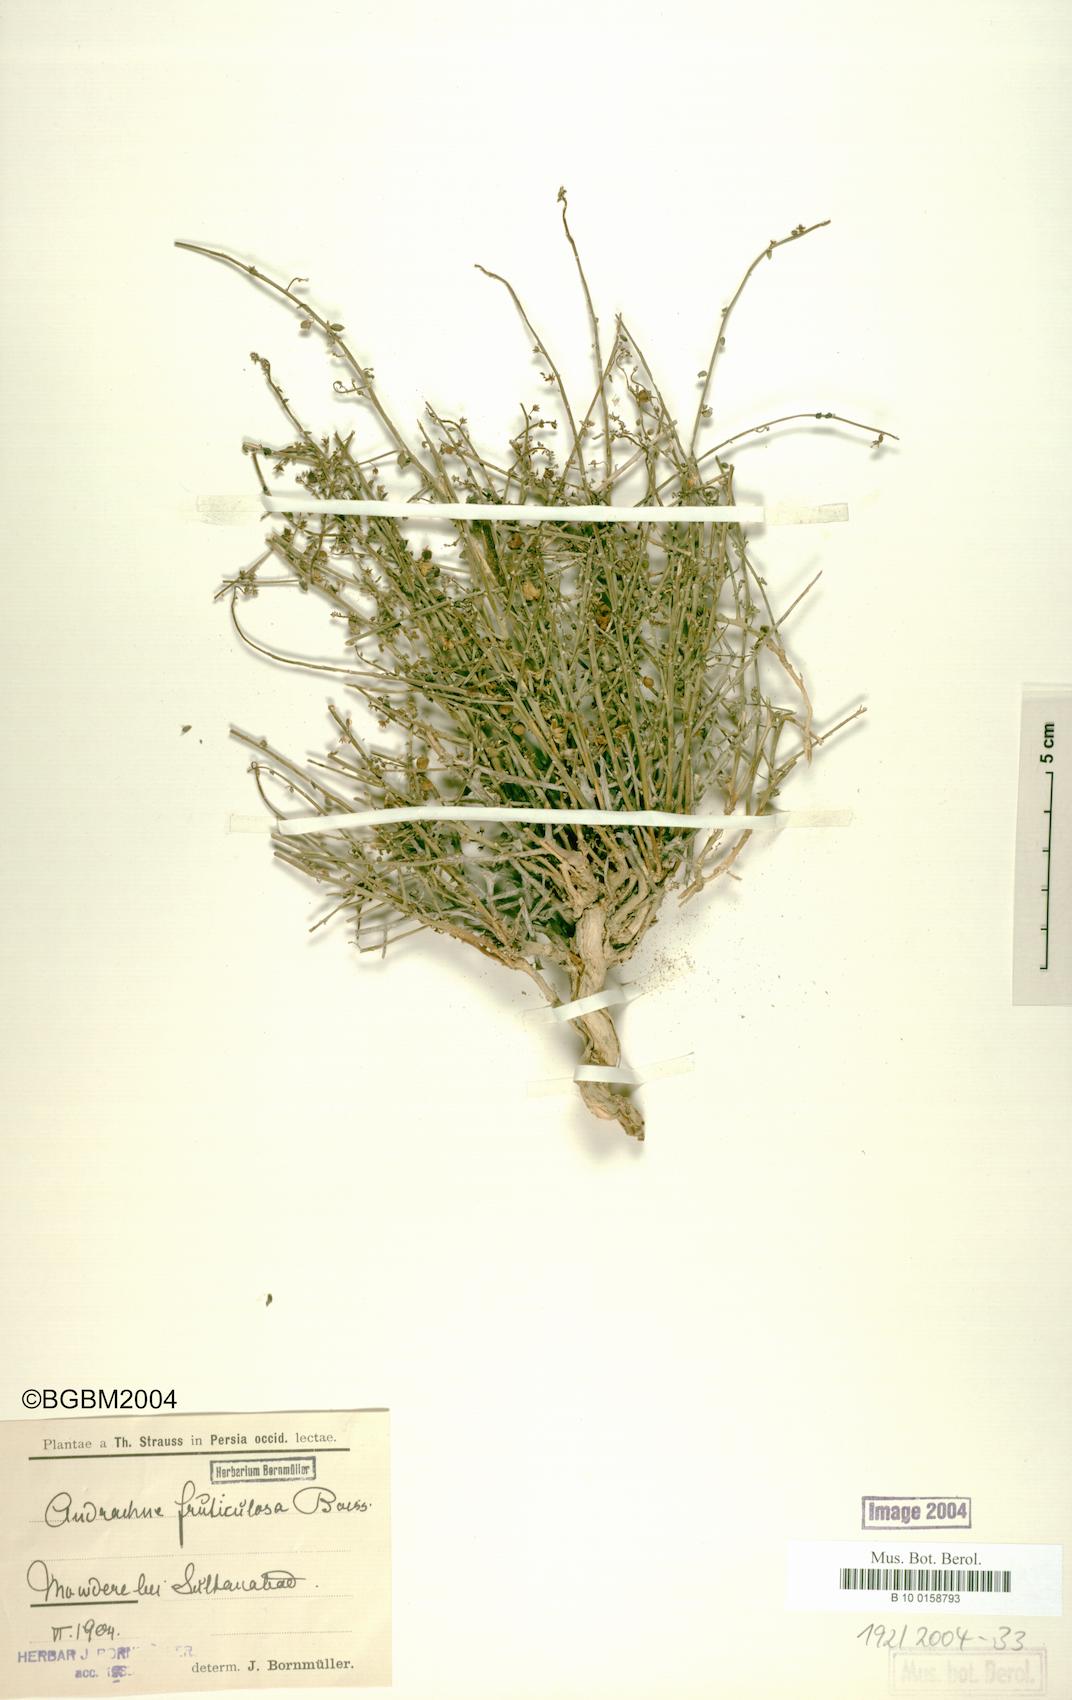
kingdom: Plantae
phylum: Tracheophyta
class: Magnoliopsida
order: Malpighiales
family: Phyllanthaceae
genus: Andrachne
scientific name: Andrachne fruticulosa
